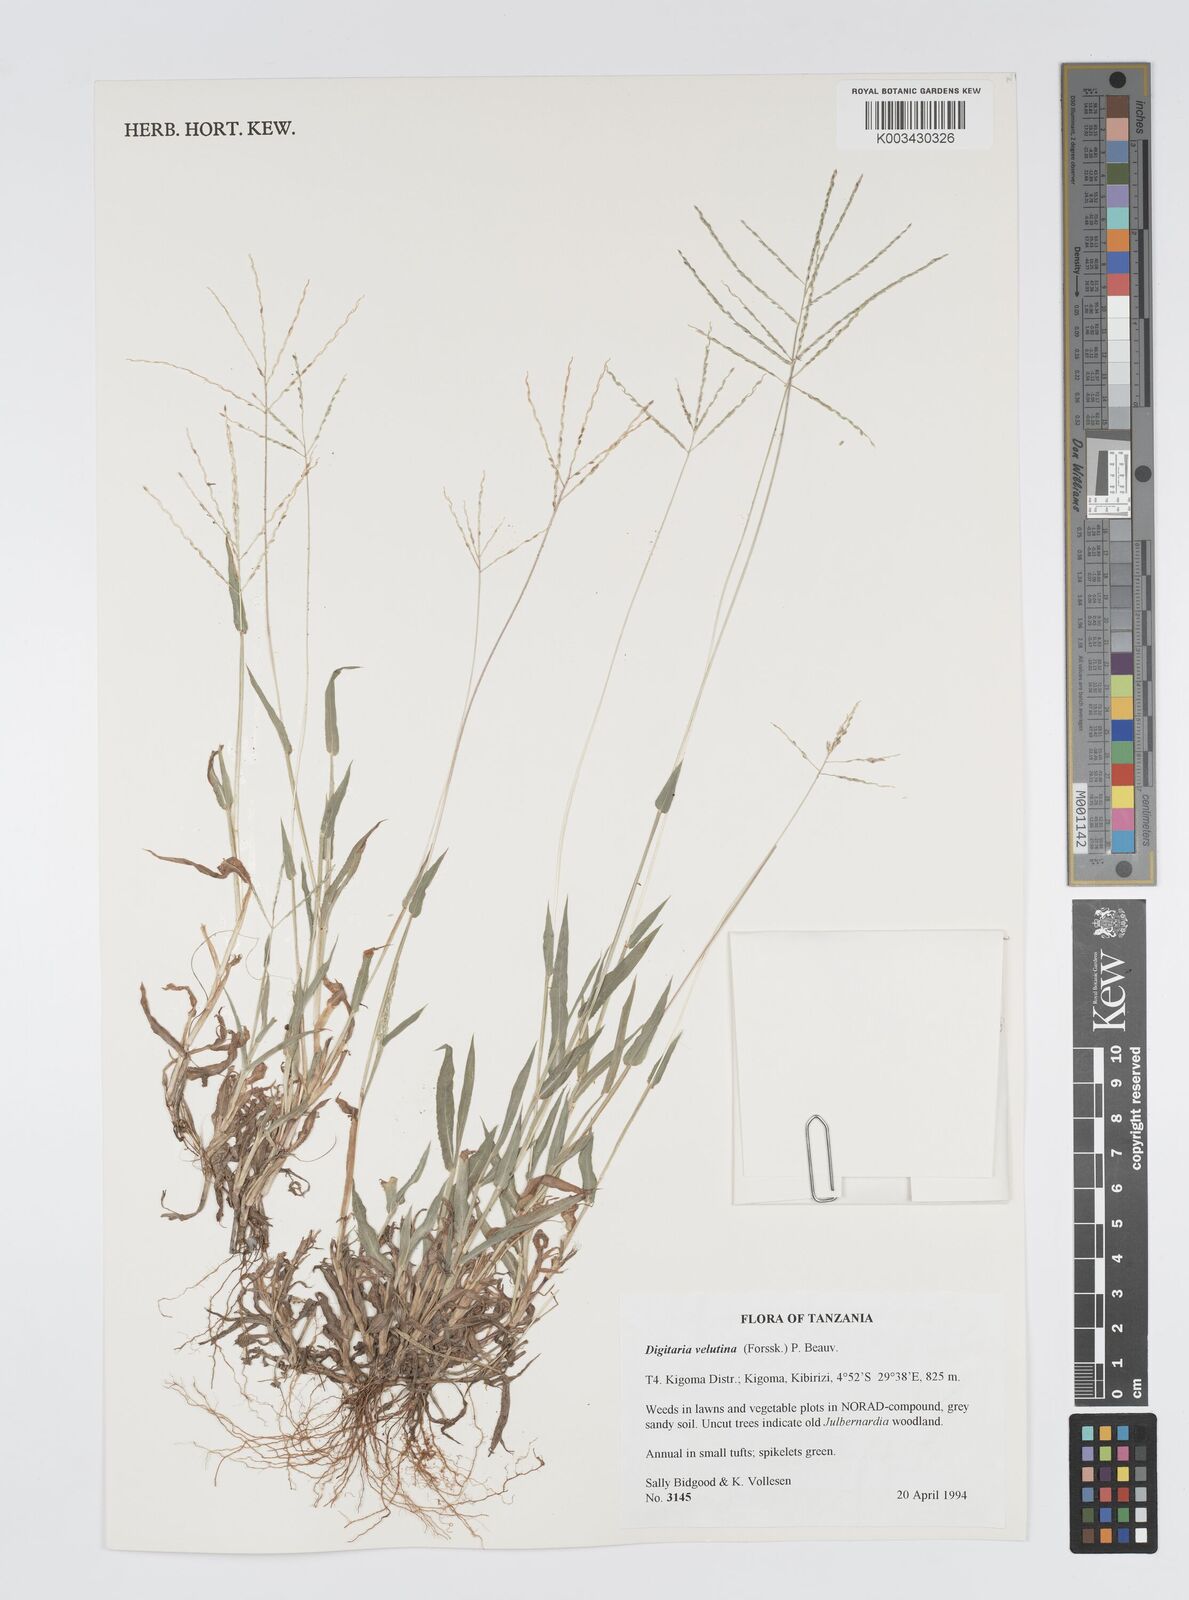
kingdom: Plantae
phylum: Tracheophyta
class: Liliopsida
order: Poales
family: Poaceae
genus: Digitaria
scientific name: Digitaria velutina
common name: Long-plume finger grass
